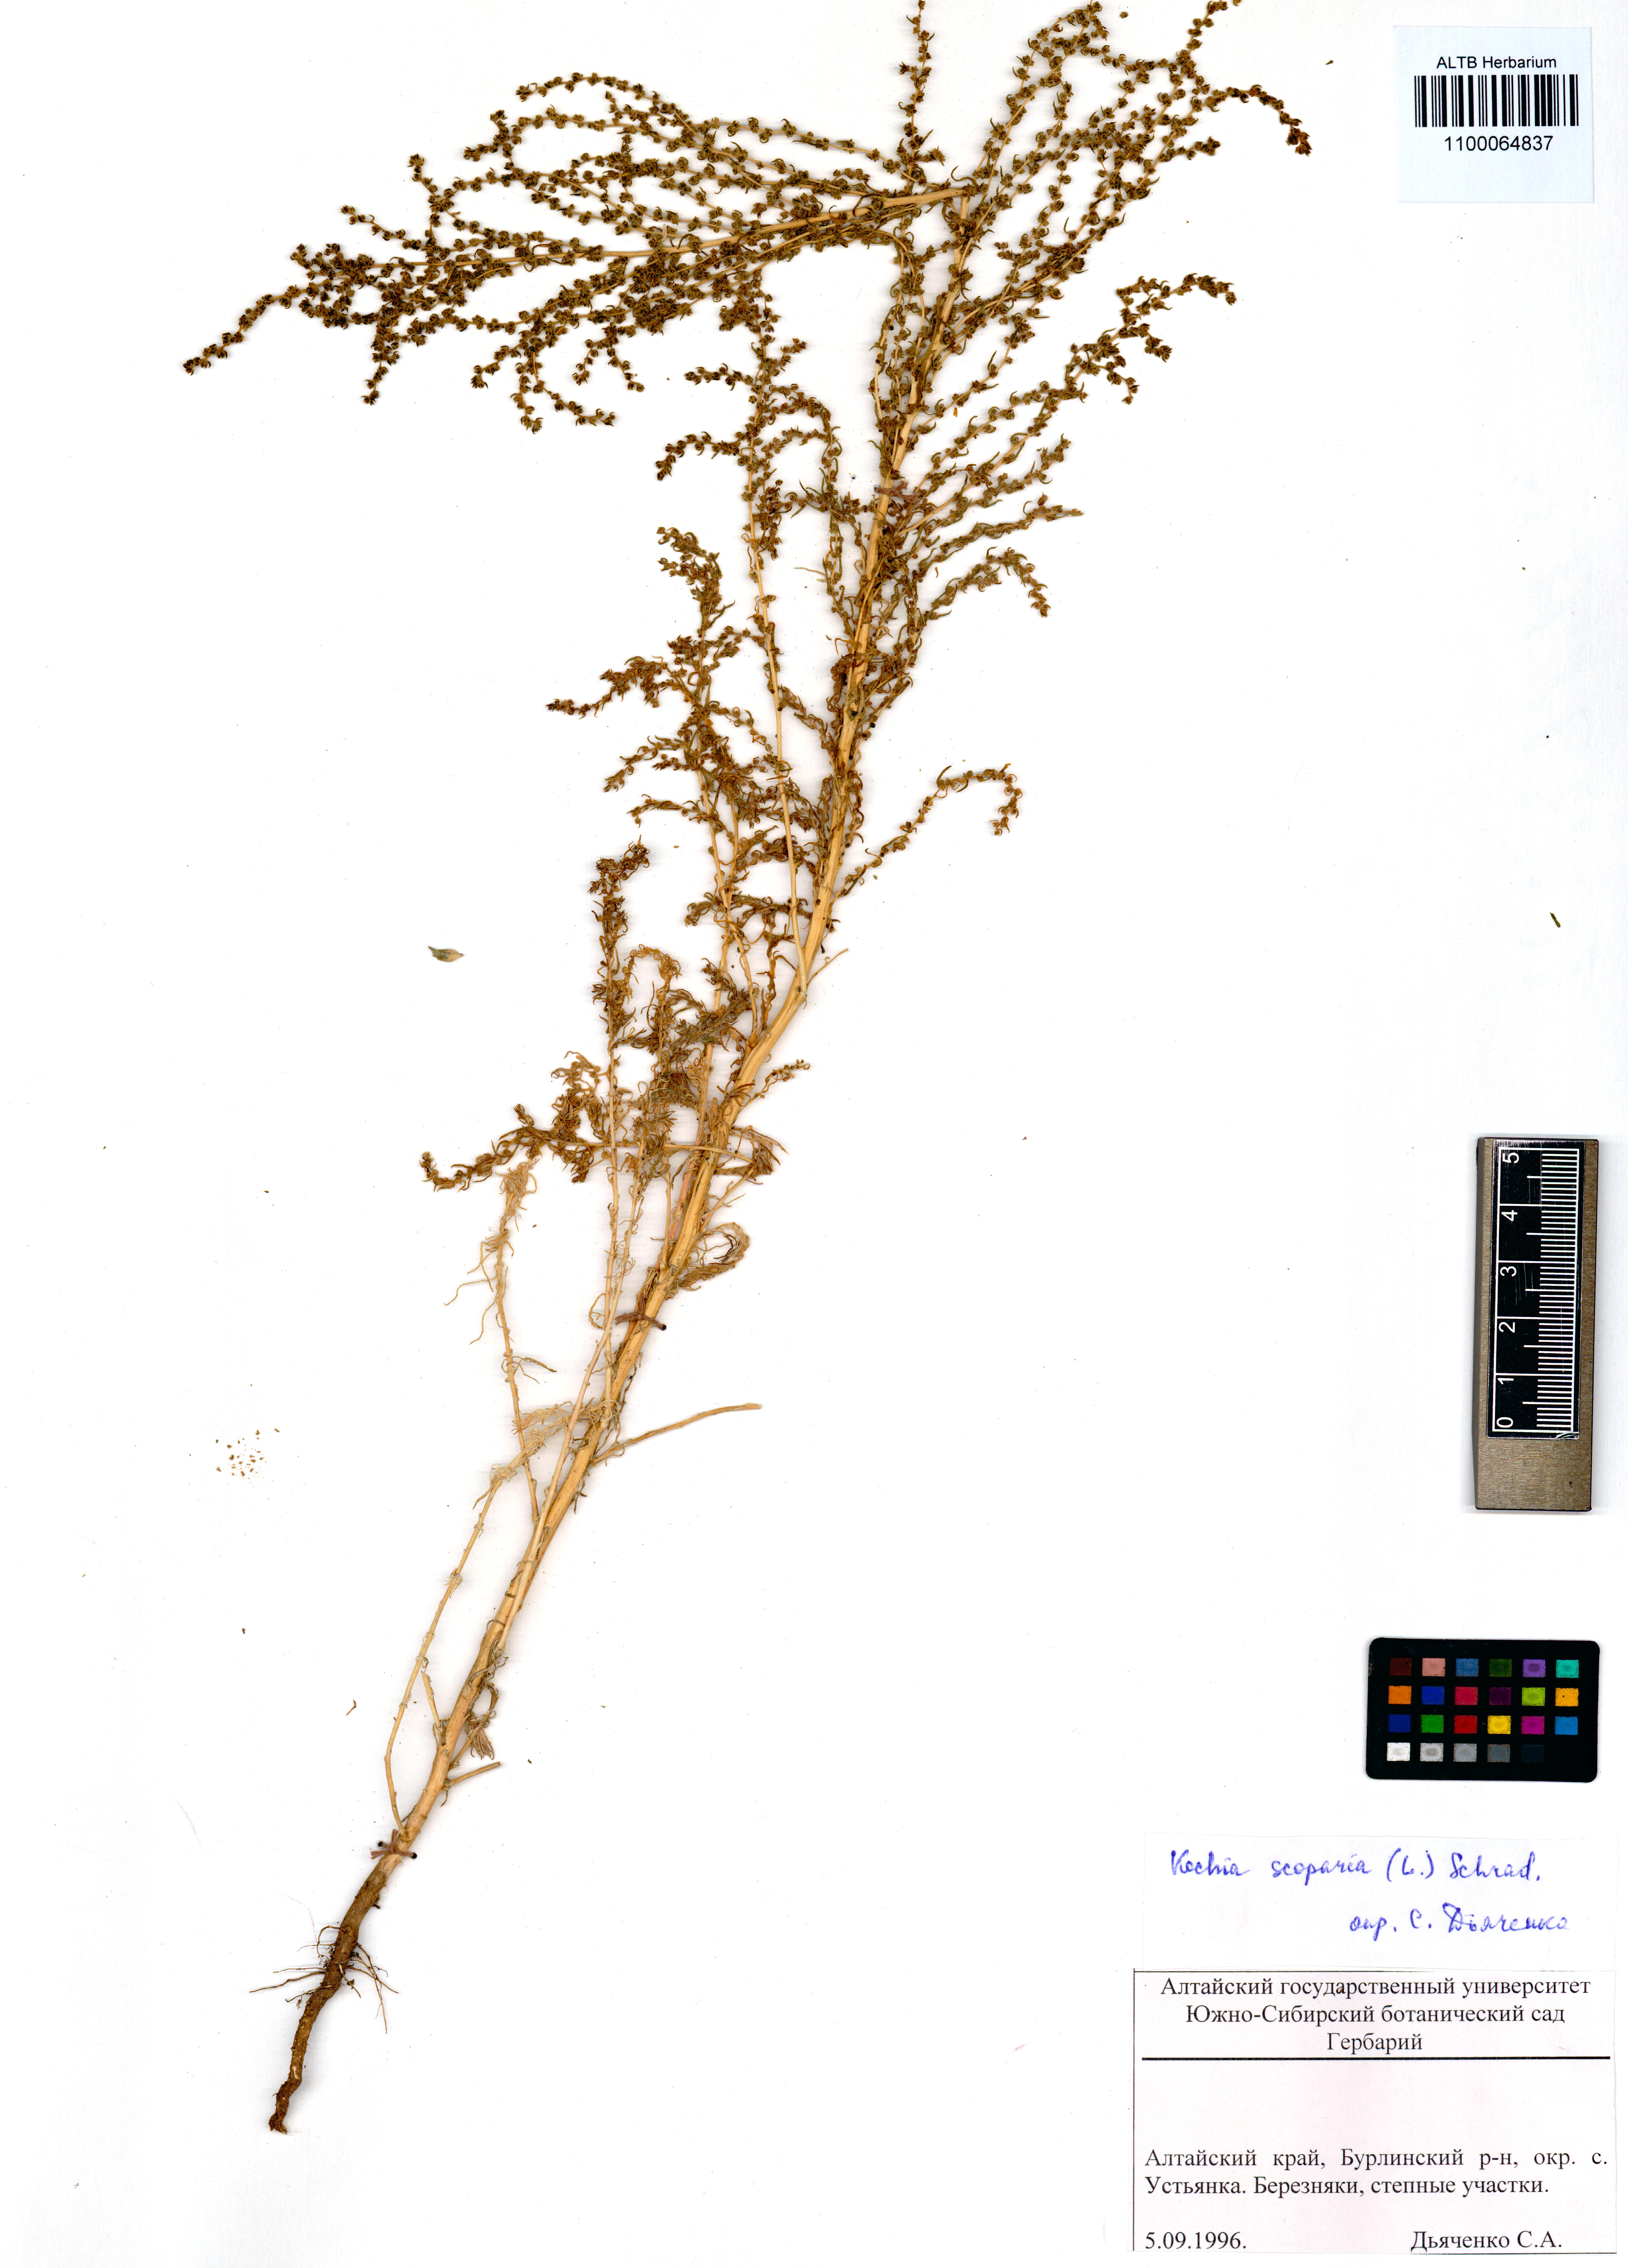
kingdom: Plantae
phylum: Tracheophyta
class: Magnoliopsida
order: Caryophyllales
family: Amaranthaceae
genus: Bassia
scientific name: Bassia scoparia
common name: Belvedere
